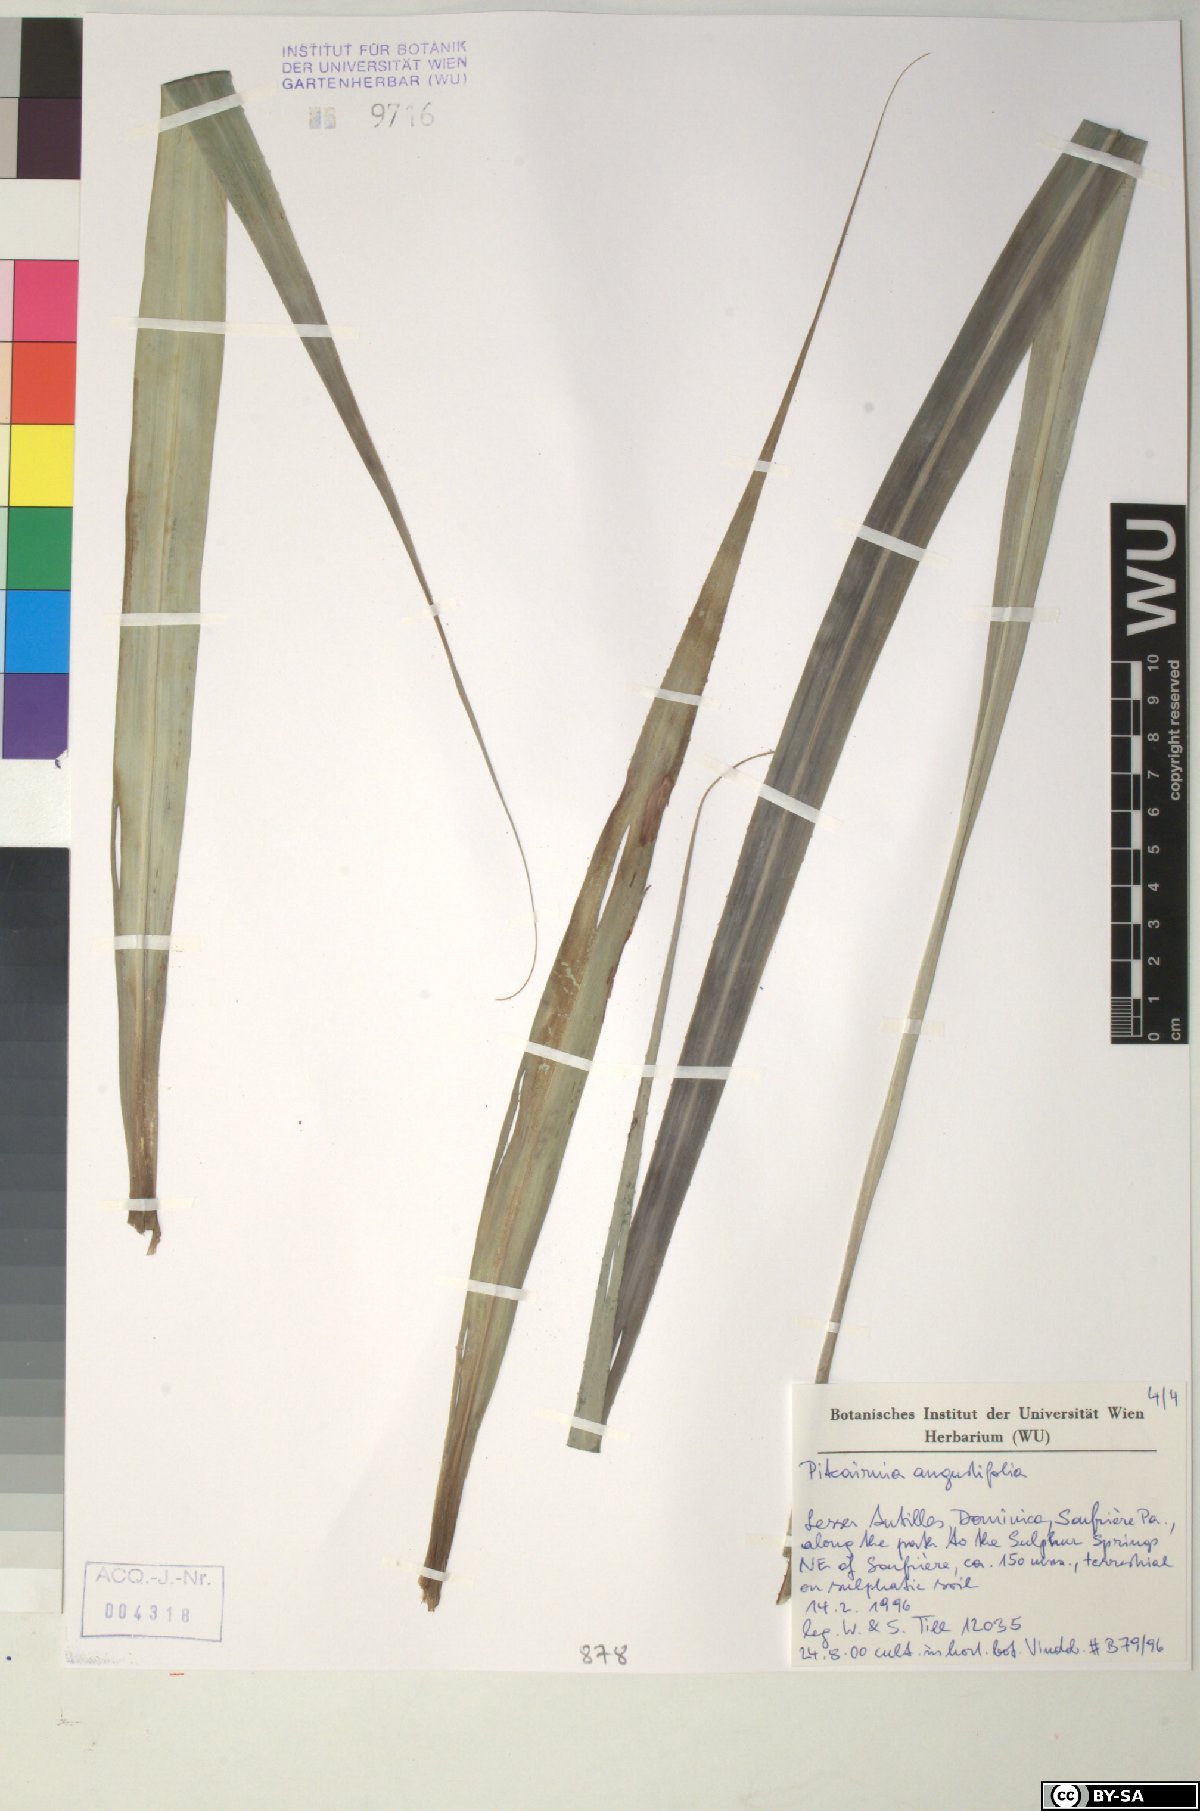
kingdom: Plantae
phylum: Tracheophyta
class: Liliopsida
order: Poales
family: Bromeliaceae
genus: Pitcairnia
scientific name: Pitcairnia angustifolia
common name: Clapper
